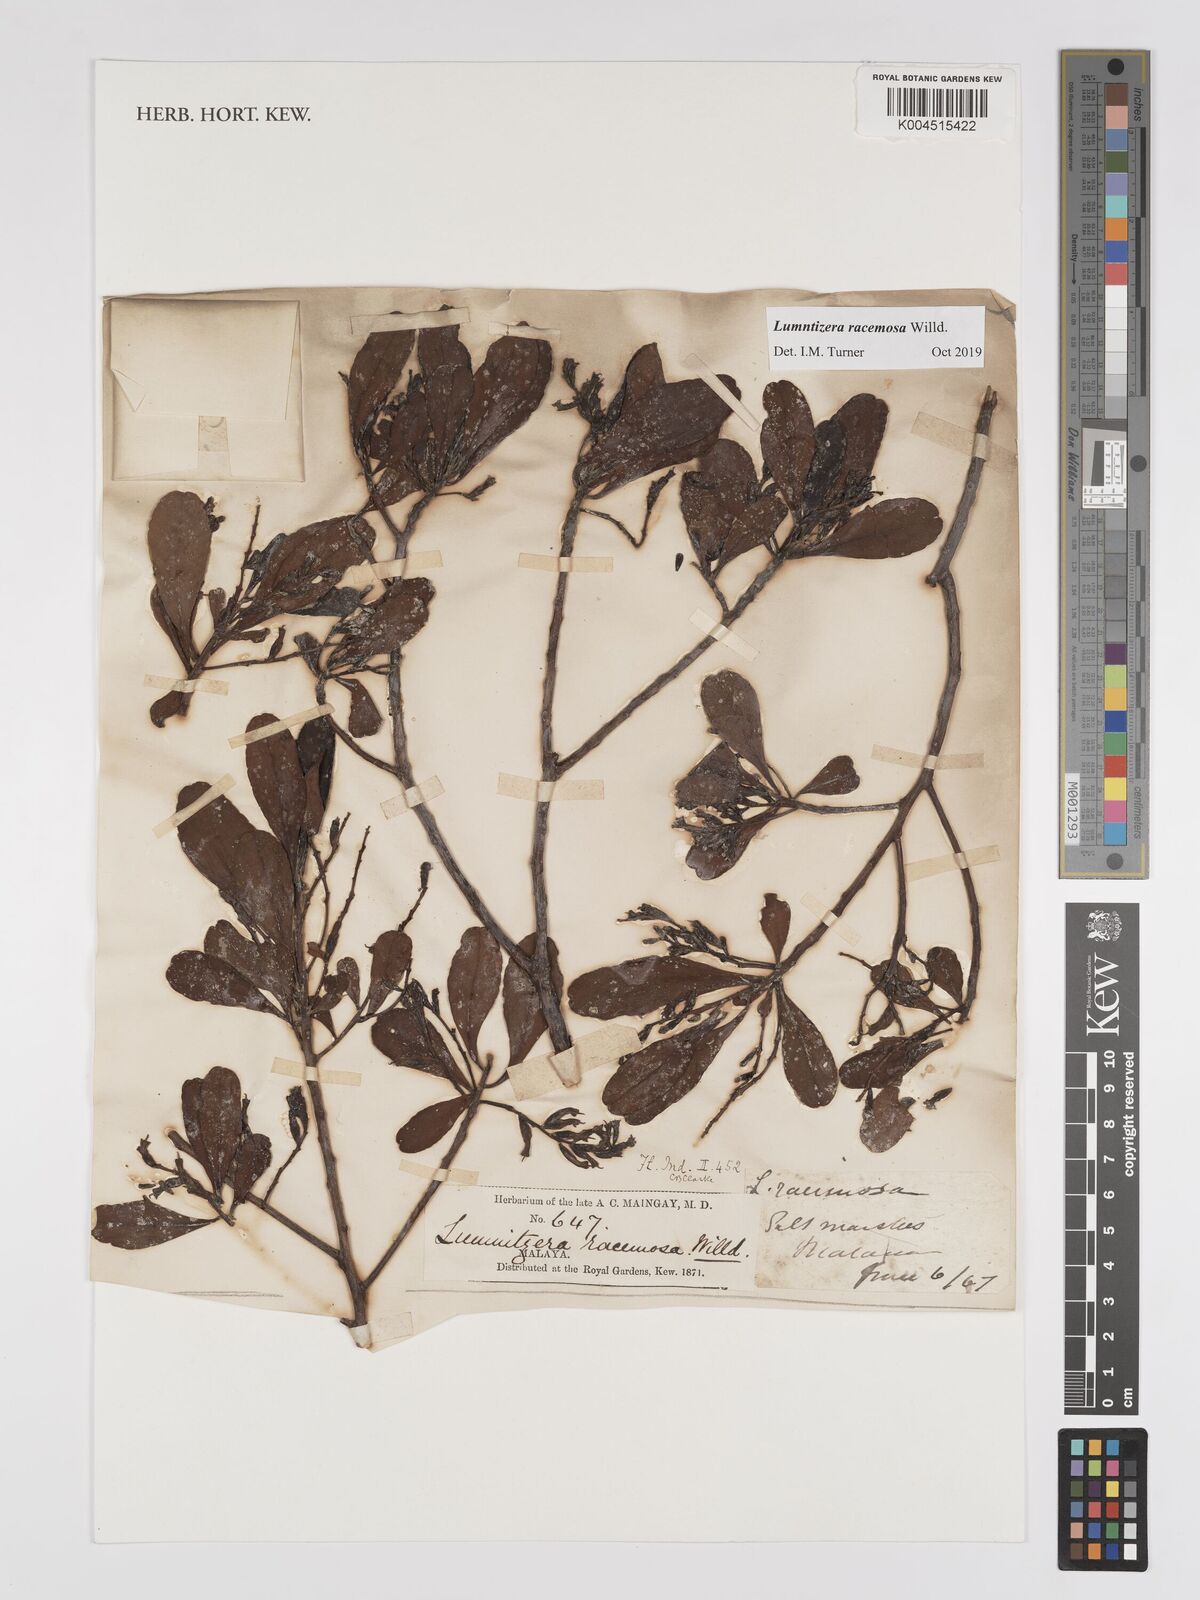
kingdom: Plantae
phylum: Tracheophyta
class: Magnoliopsida
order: Myrtales
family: Combretaceae
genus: Lumnitzera
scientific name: Lumnitzera racemosa
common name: White-flowered black mangrove
